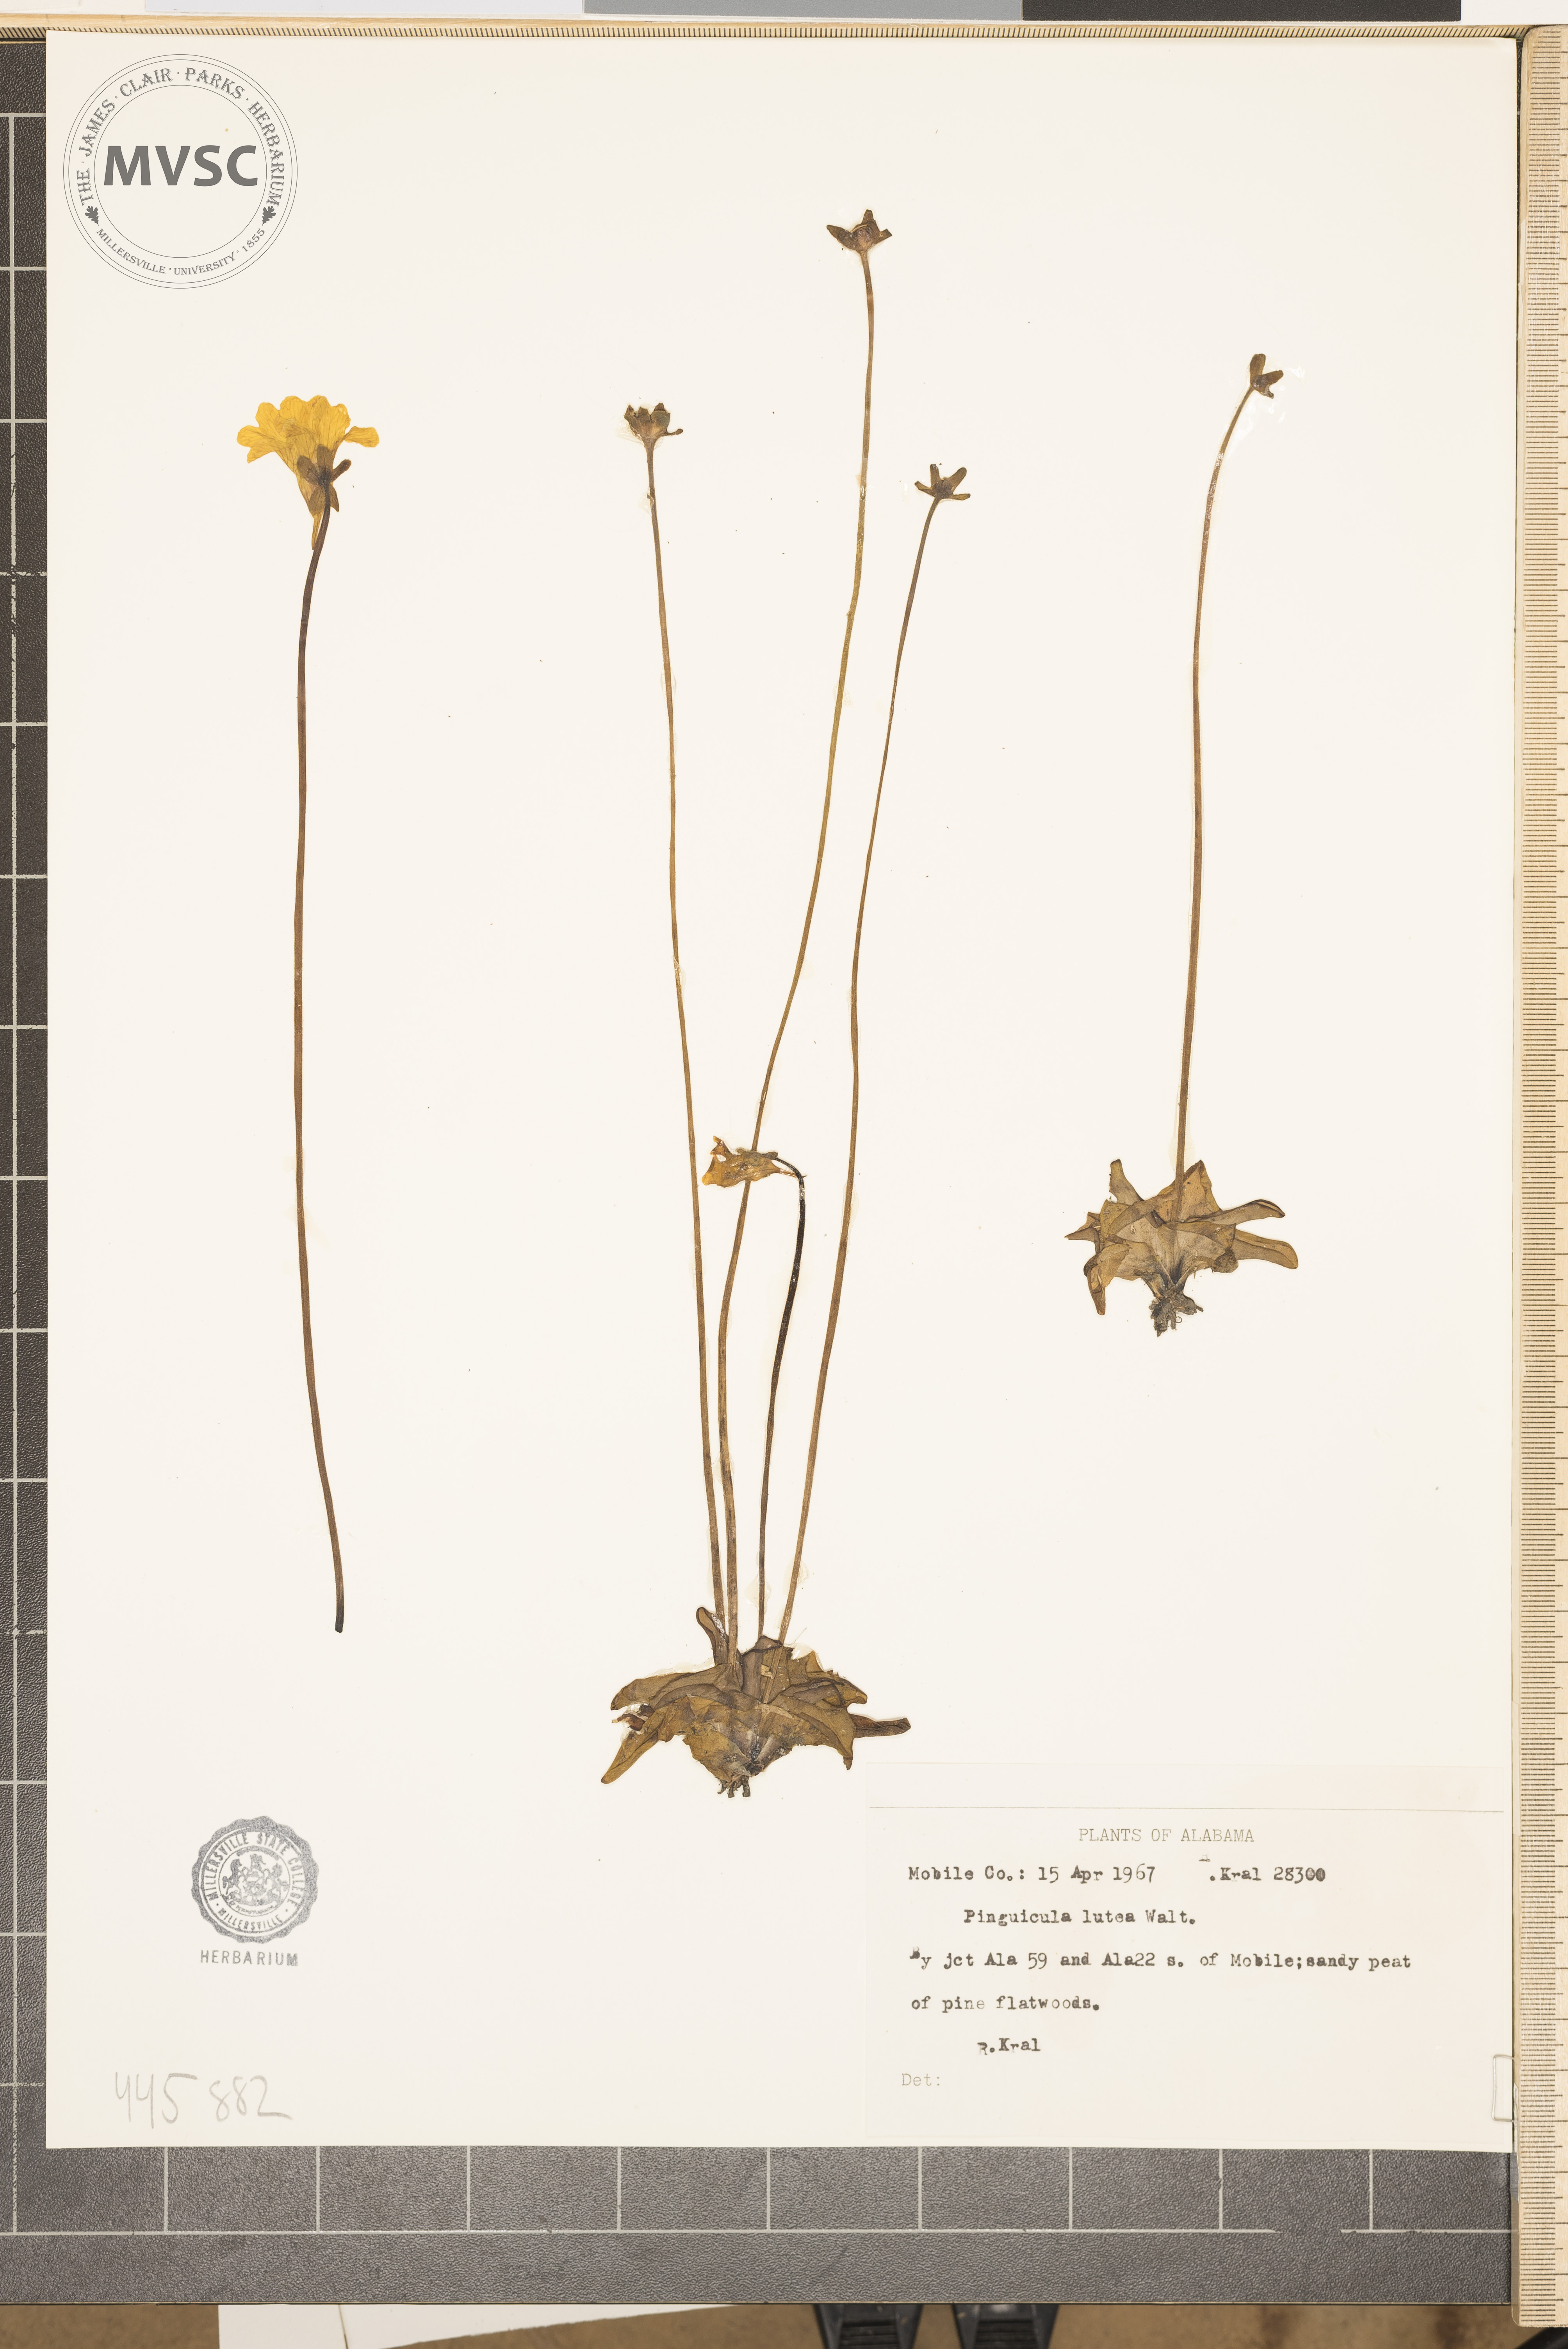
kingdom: Plantae
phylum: Tracheophyta
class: Magnoliopsida
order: Lamiales
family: Lentibulariaceae
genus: Pinguicula
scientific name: Pinguicula lutea
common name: Yellow butterwort
